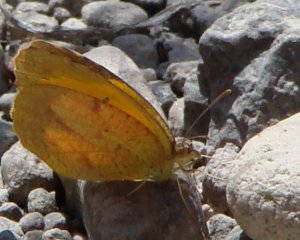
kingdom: Animalia
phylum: Arthropoda
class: Insecta
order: Lepidoptera
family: Pieridae
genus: Abaeis
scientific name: Abaeis nicippe
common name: Sleepy Orange
